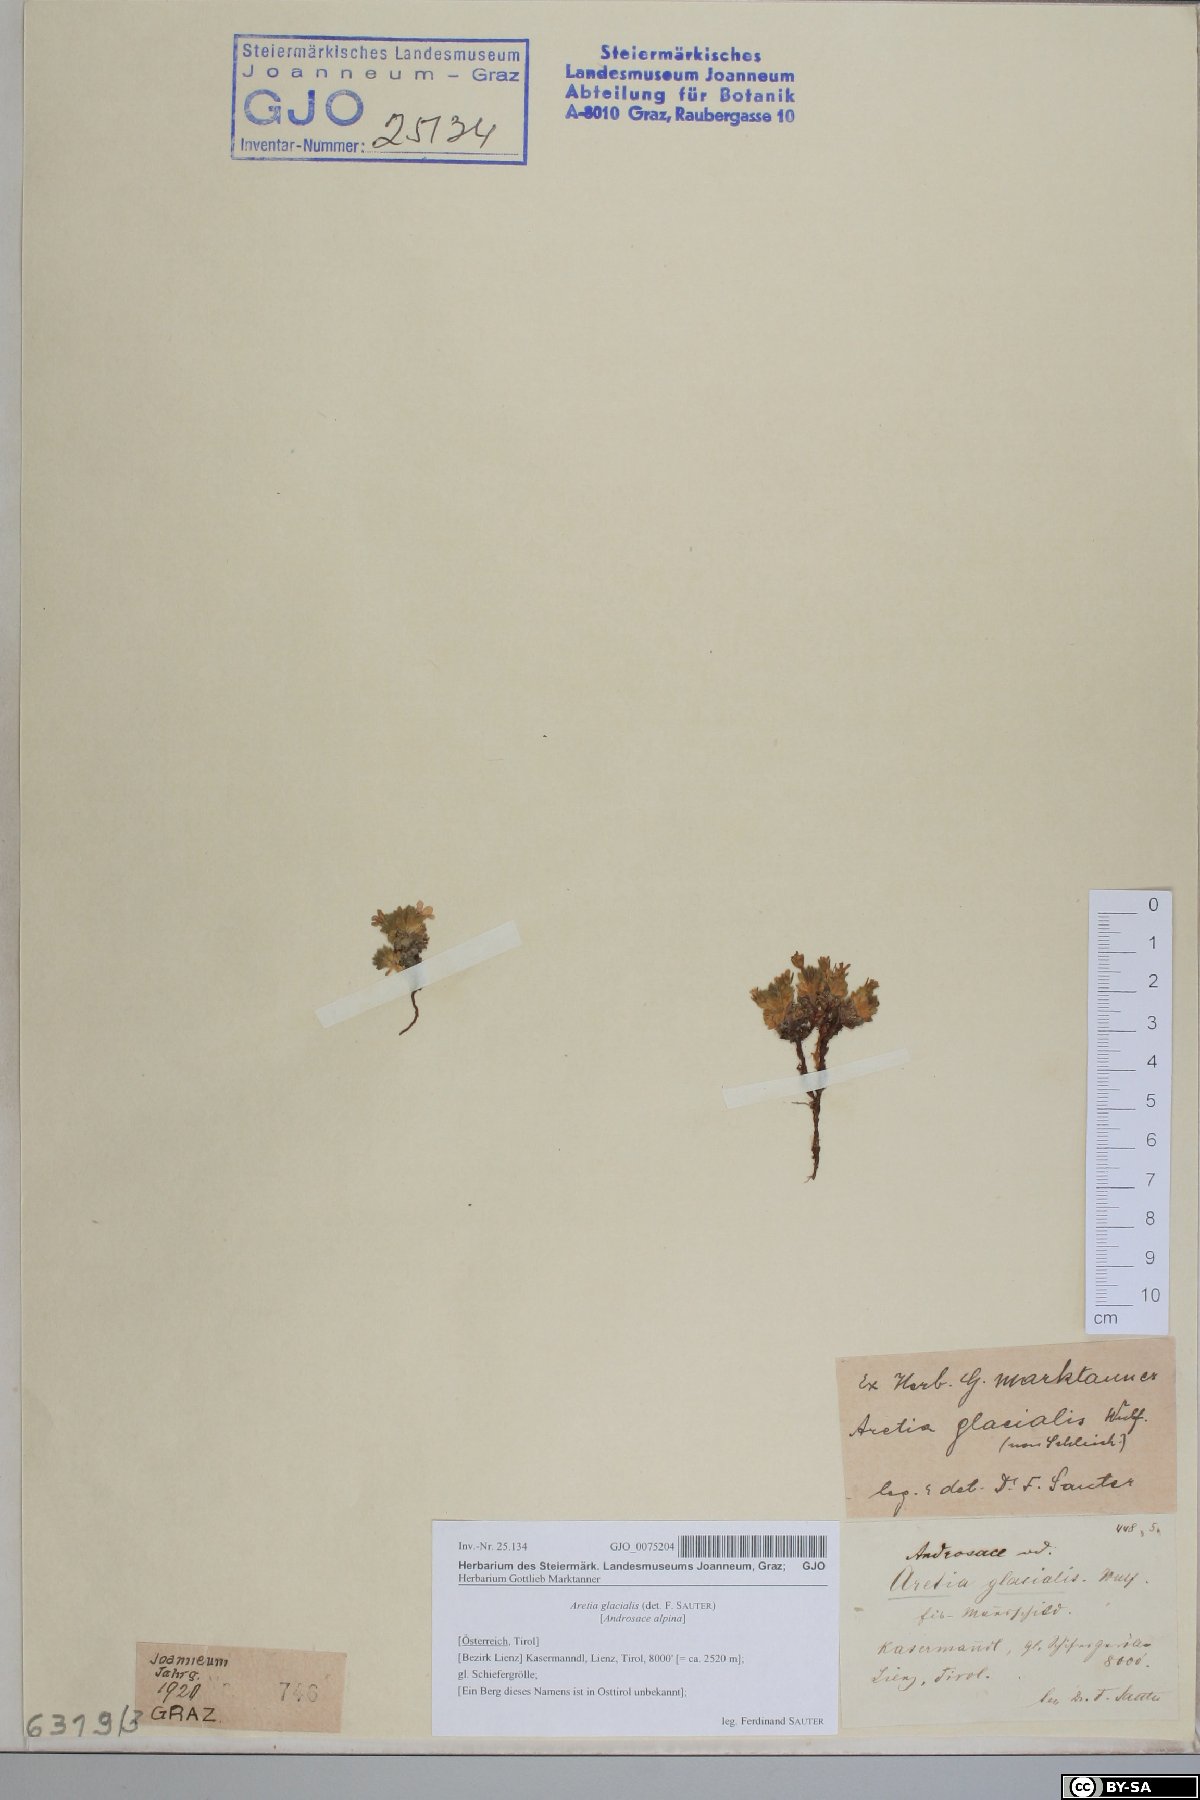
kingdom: Plantae
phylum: Tracheophyta
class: Magnoliopsida
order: Ericales
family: Primulaceae
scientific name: Primulaceae
